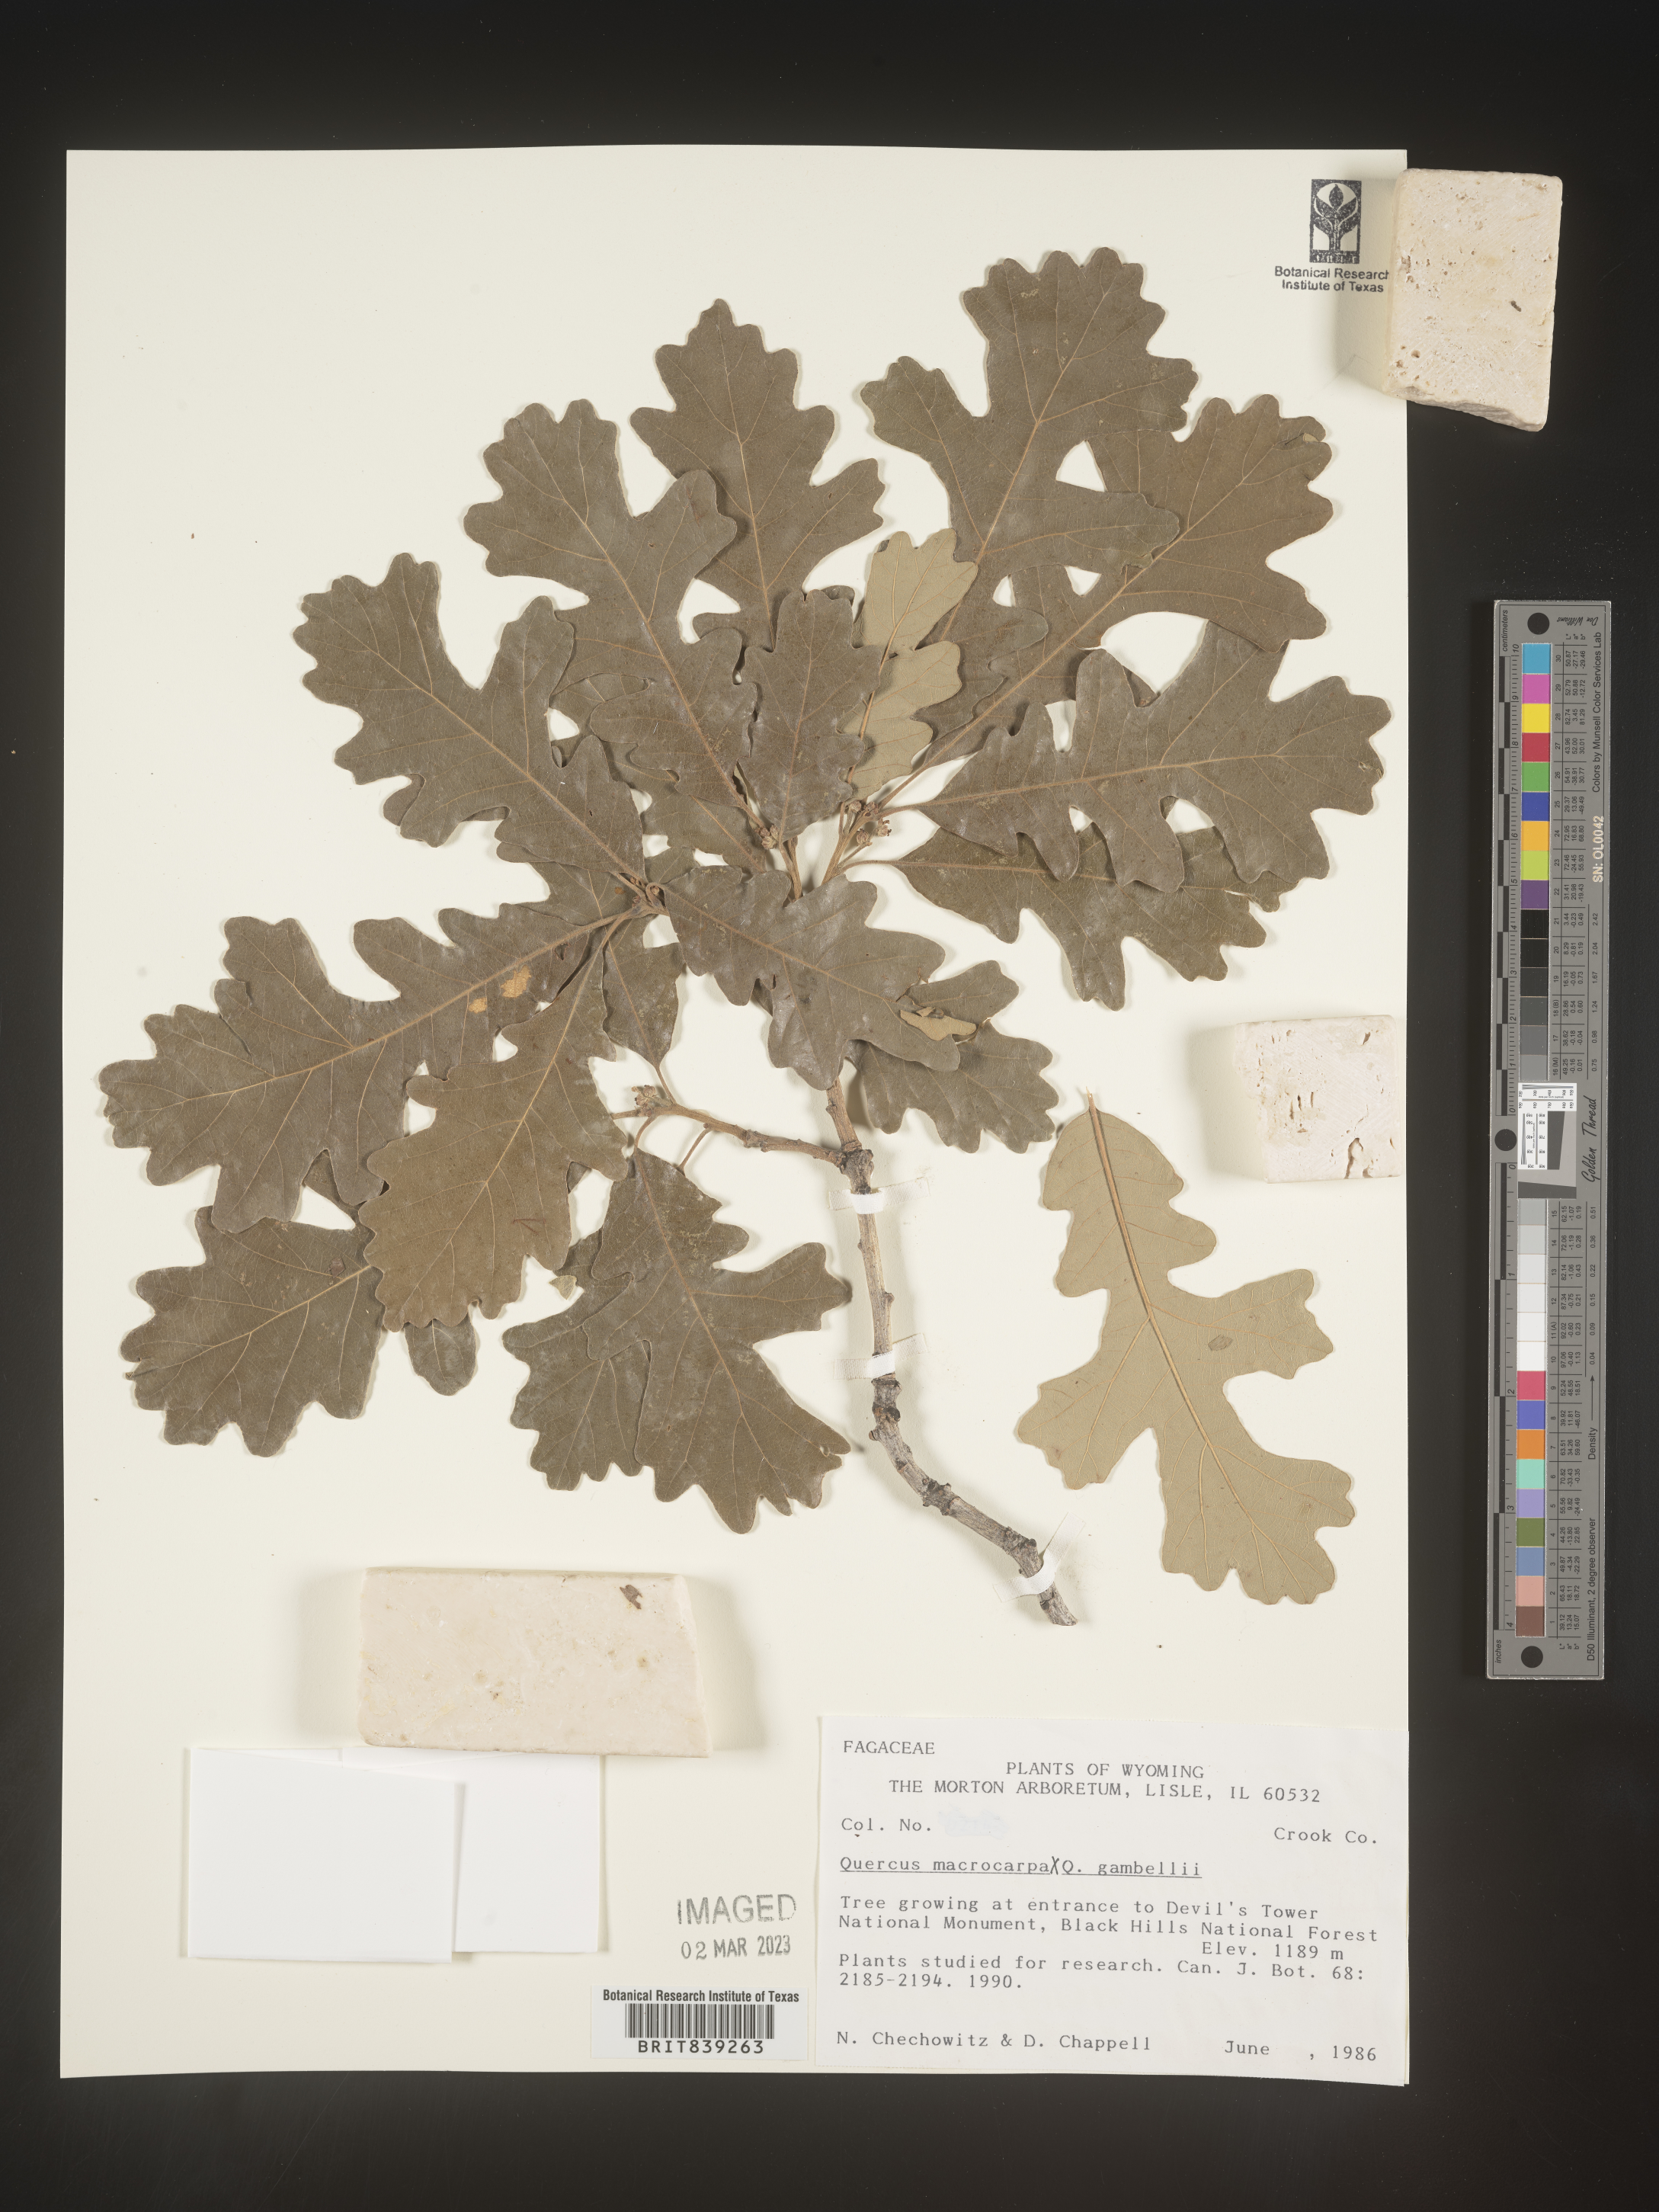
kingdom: Plantae
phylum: Tracheophyta
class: Magnoliopsida
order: Fagales
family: Fagaceae
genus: Quercus
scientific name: Quercus macrocarpa
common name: Bur oak
